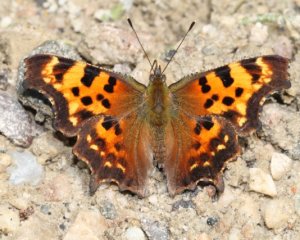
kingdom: Animalia
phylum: Arthropoda
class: Insecta
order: Lepidoptera
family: Nymphalidae
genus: Polygonia
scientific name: Polygonia faunus
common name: Green Comma
